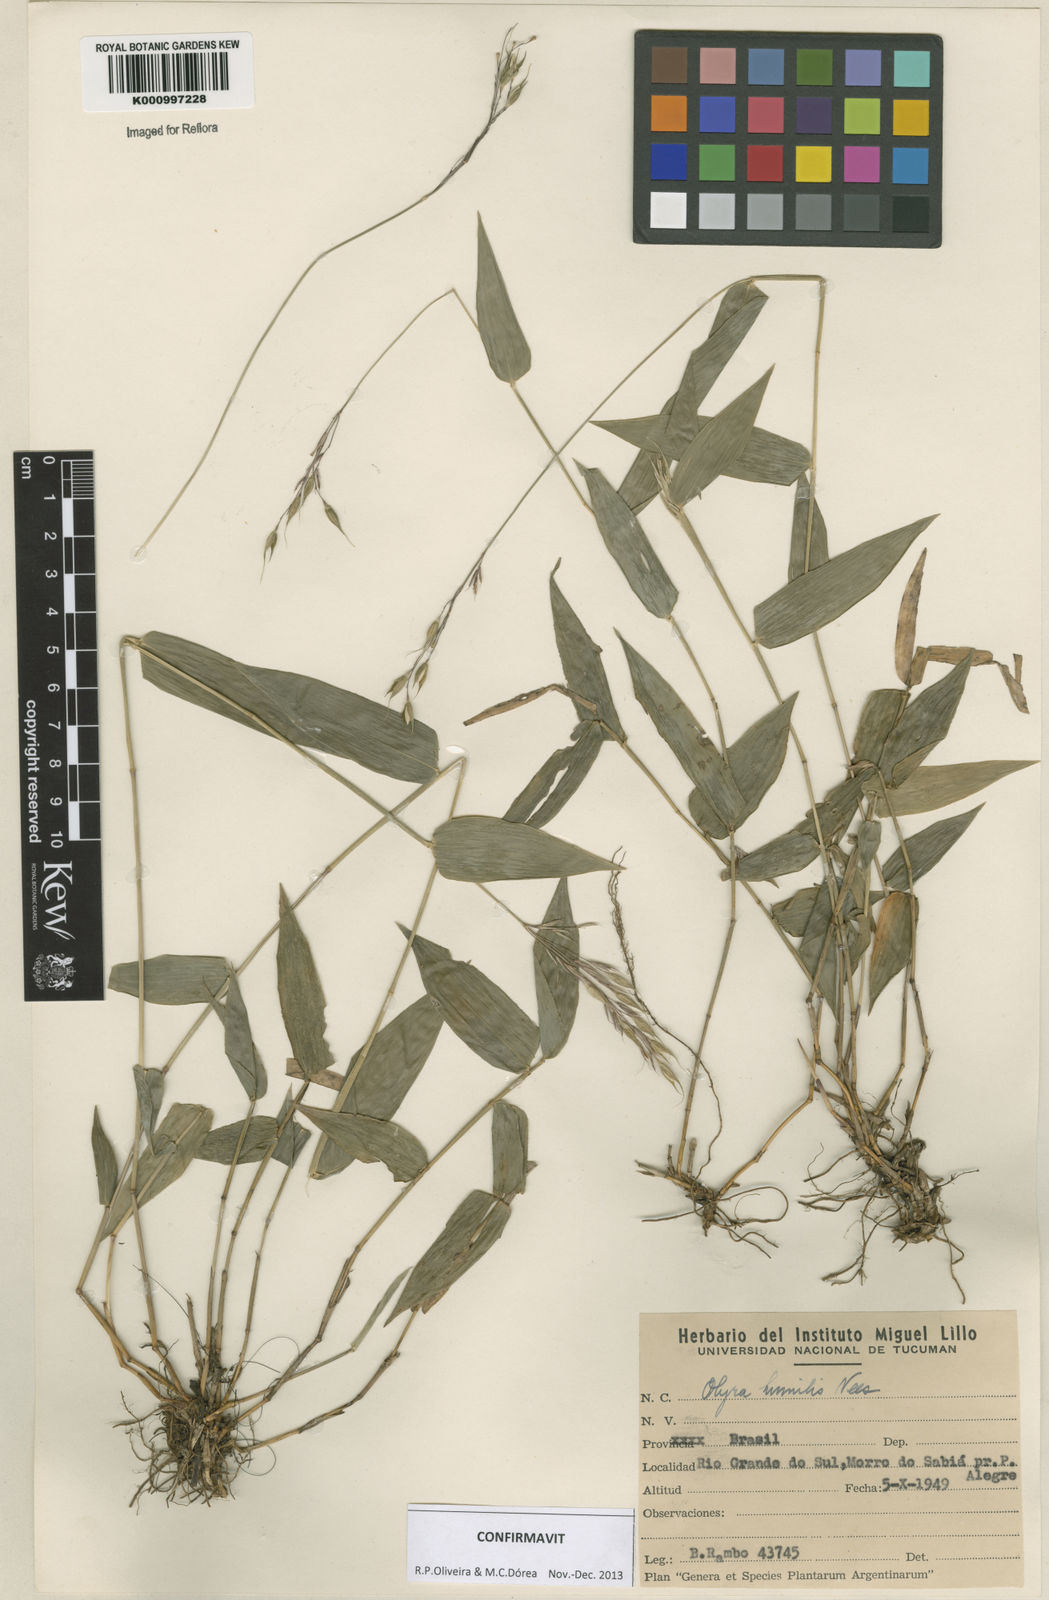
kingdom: Plantae
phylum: Tracheophyta
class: Liliopsida
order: Poales
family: Poaceae
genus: Olyra
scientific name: Olyra humilis
